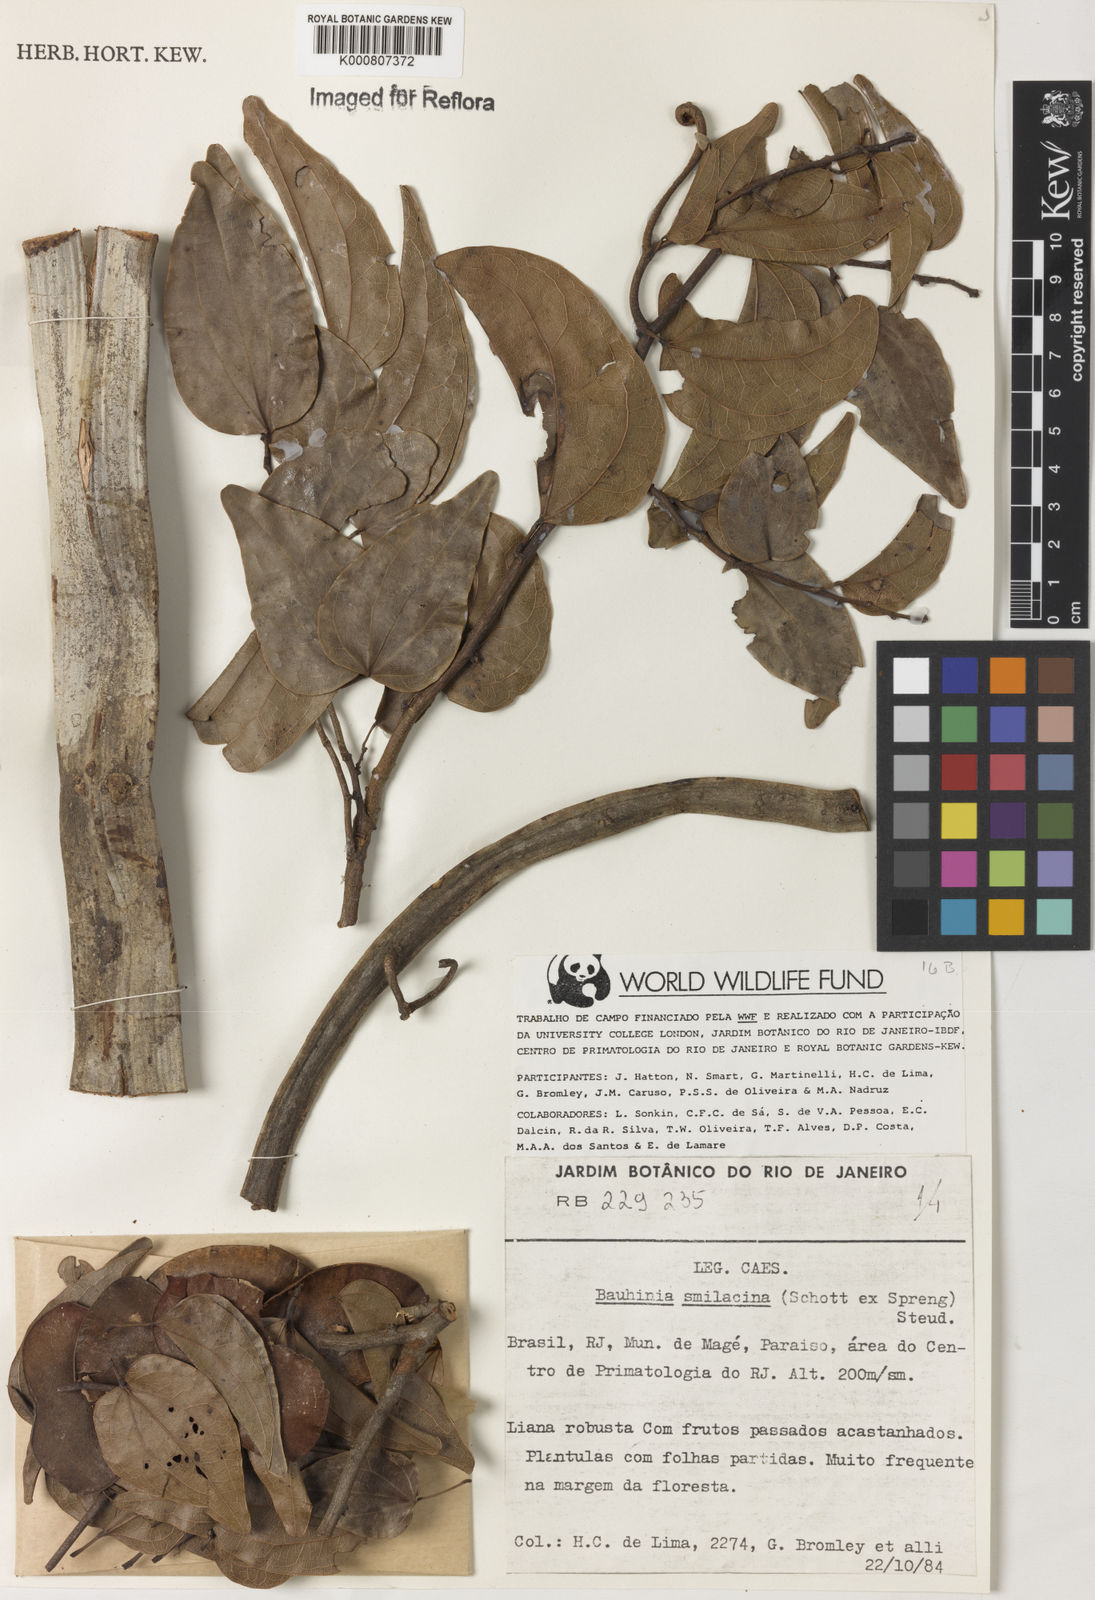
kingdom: Plantae
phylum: Tracheophyta
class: Magnoliopsida
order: Fabales
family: Fabaceae
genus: Schnella
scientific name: Schnella maximiliani
